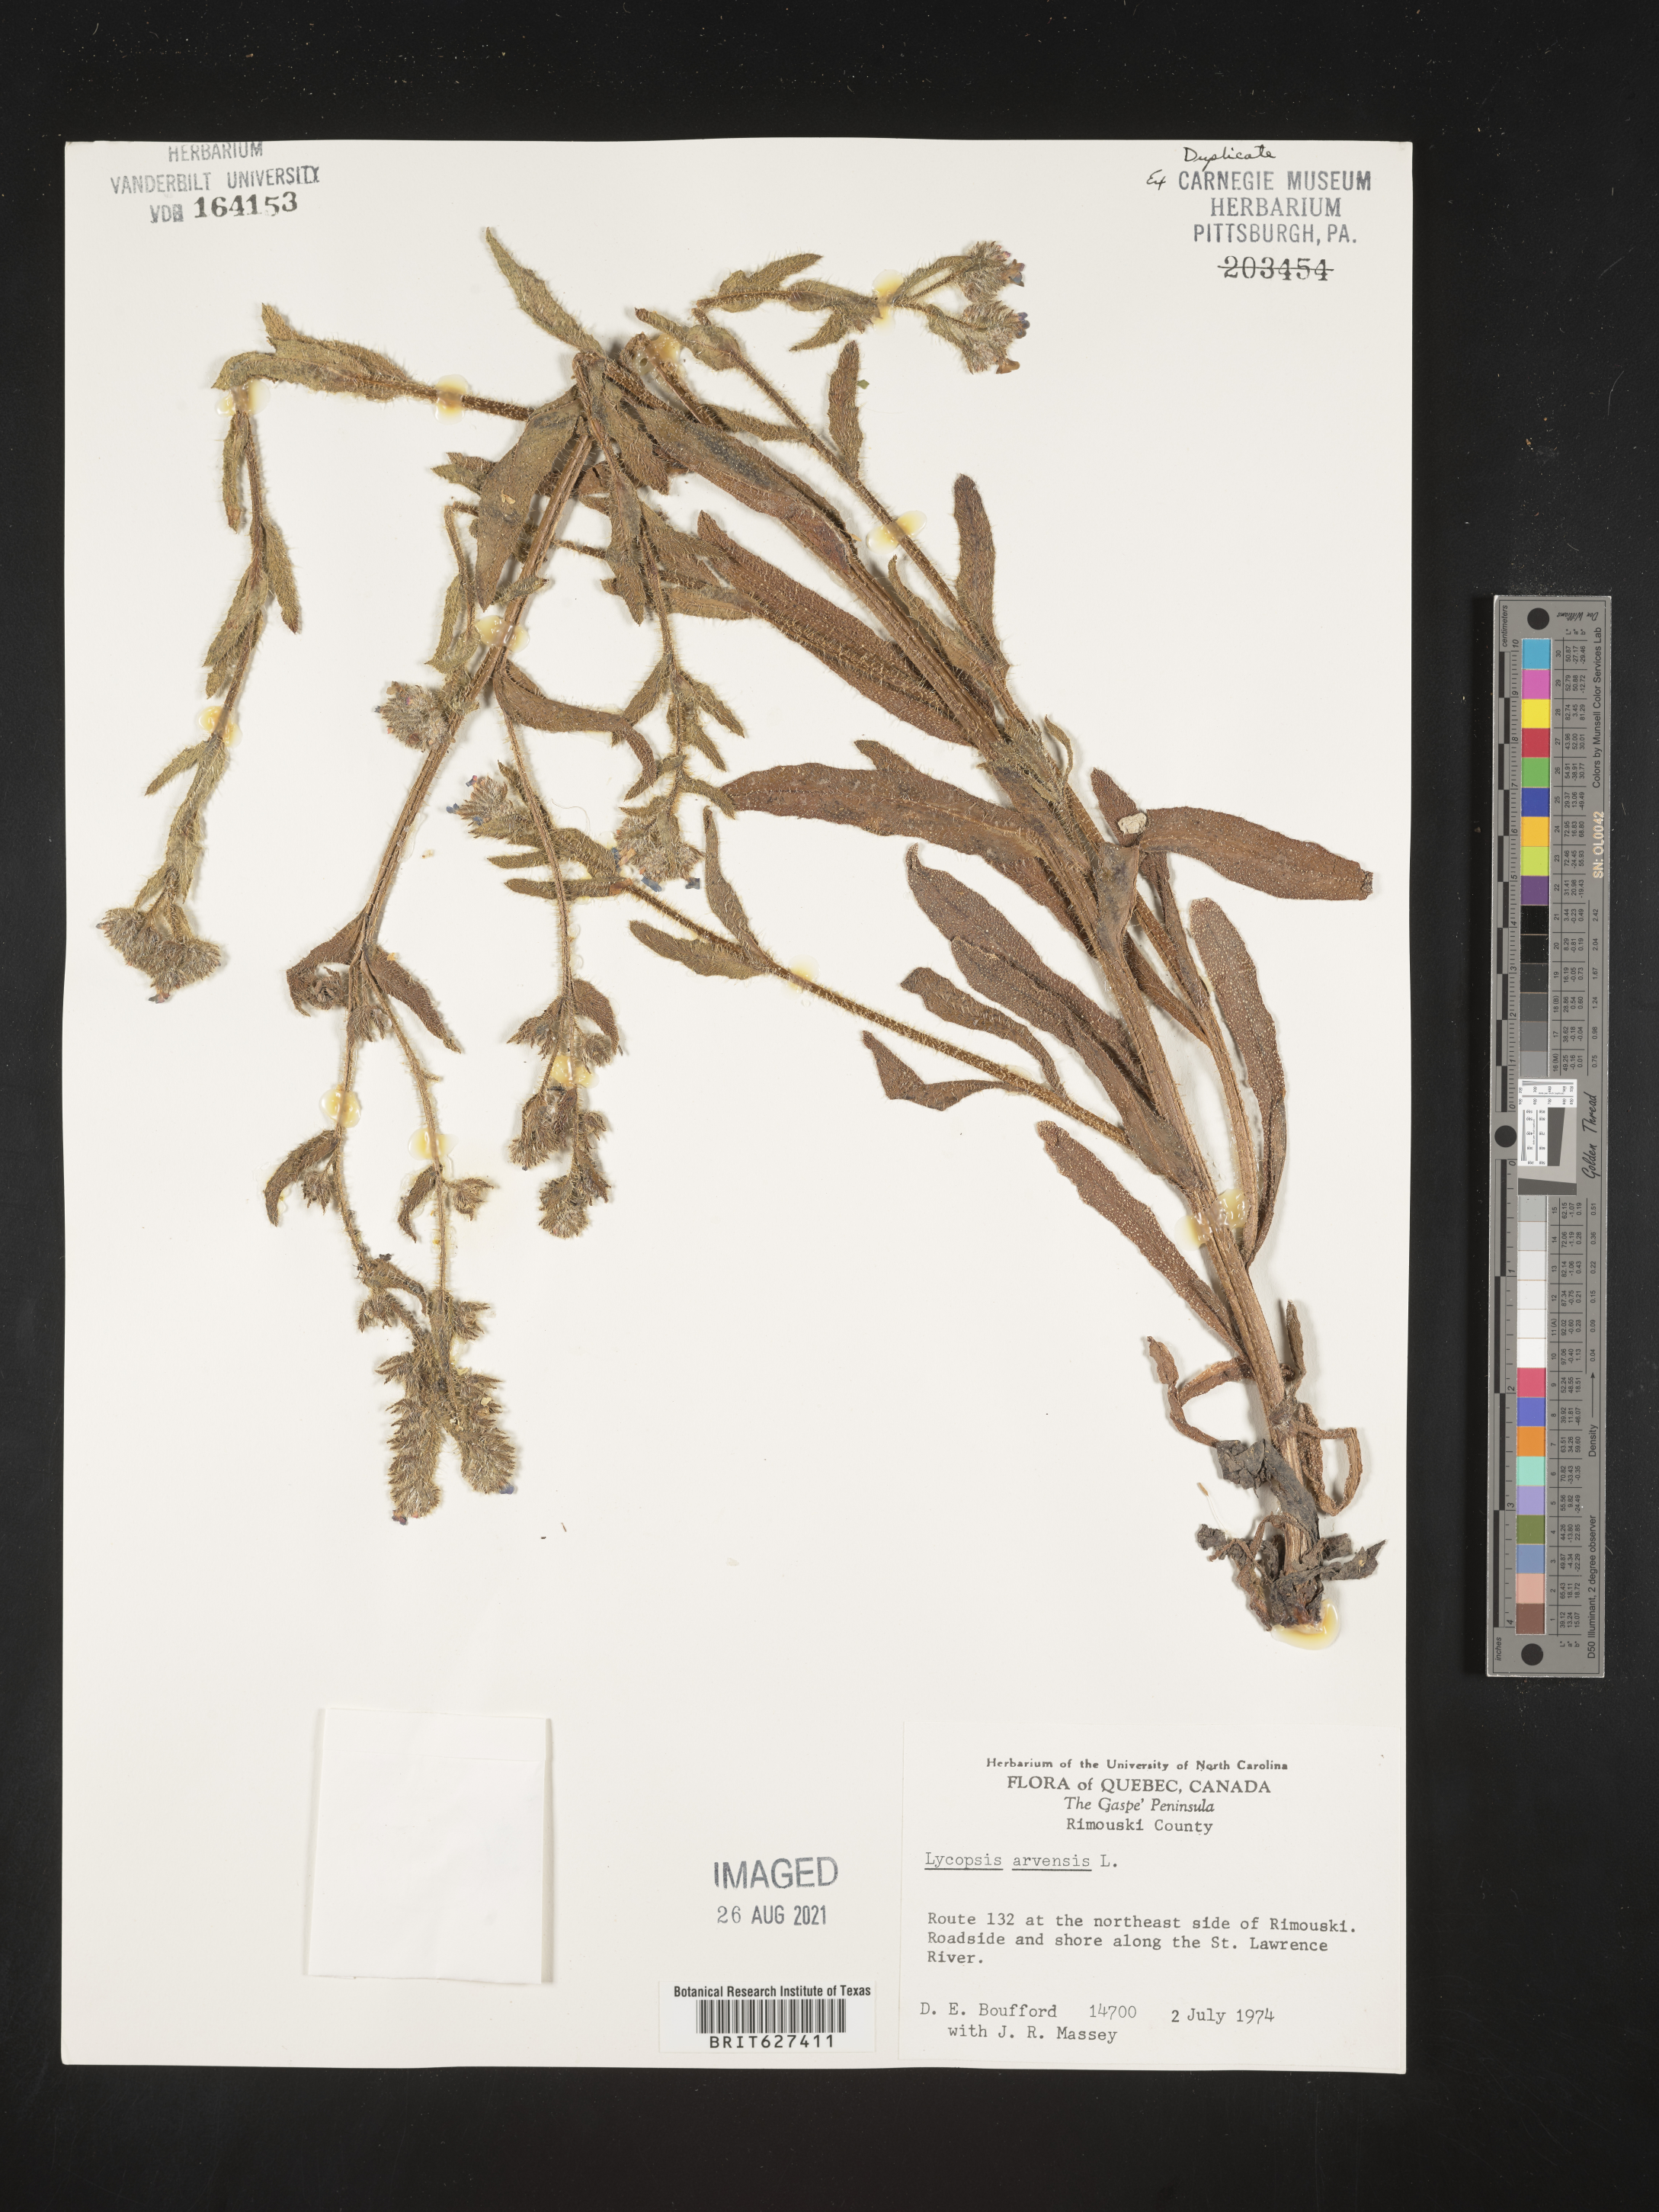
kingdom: Plantae
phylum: Tracheophyta
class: Magnoliopsida
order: Boraginales
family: Boraginaceae
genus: Lycopsis
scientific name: Lycopsis arvensis
